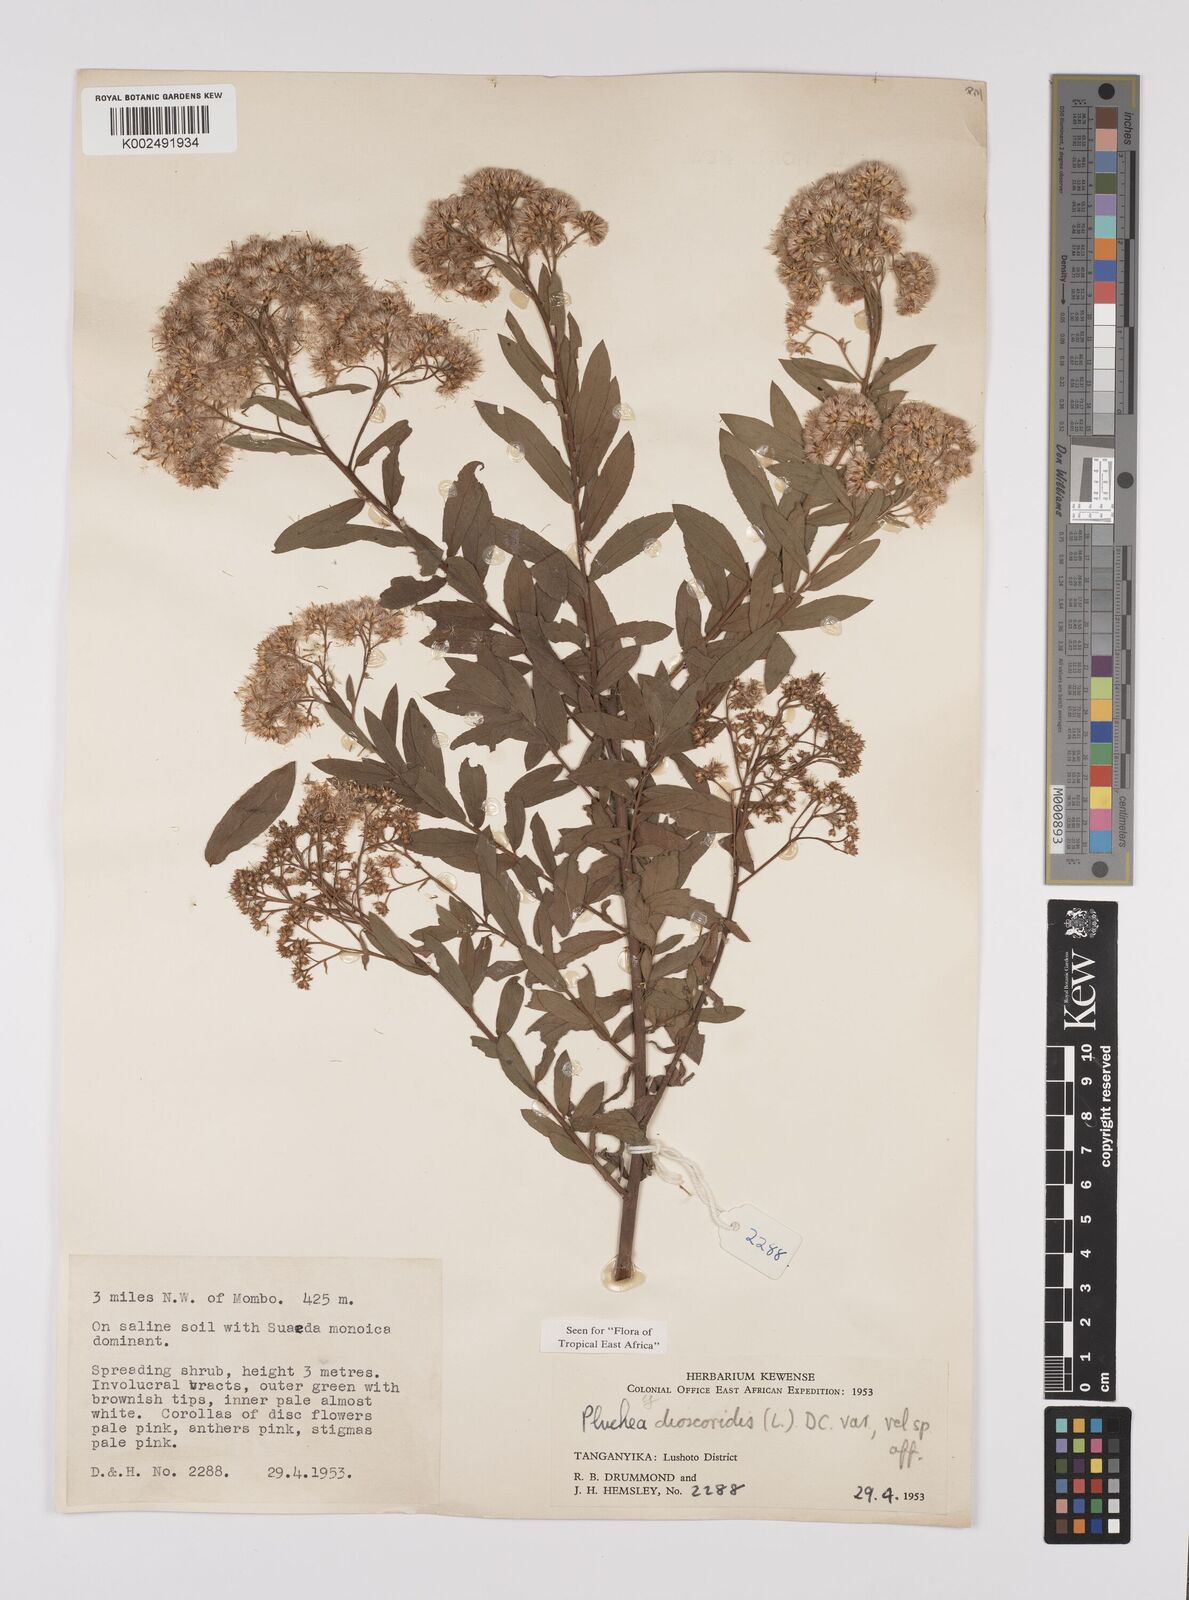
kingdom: Plantae
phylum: Tracheophyta
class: Magnoliopsida
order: Asterales
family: Asteraceae
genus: Pluchea
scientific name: Pluchea dioscoridis
